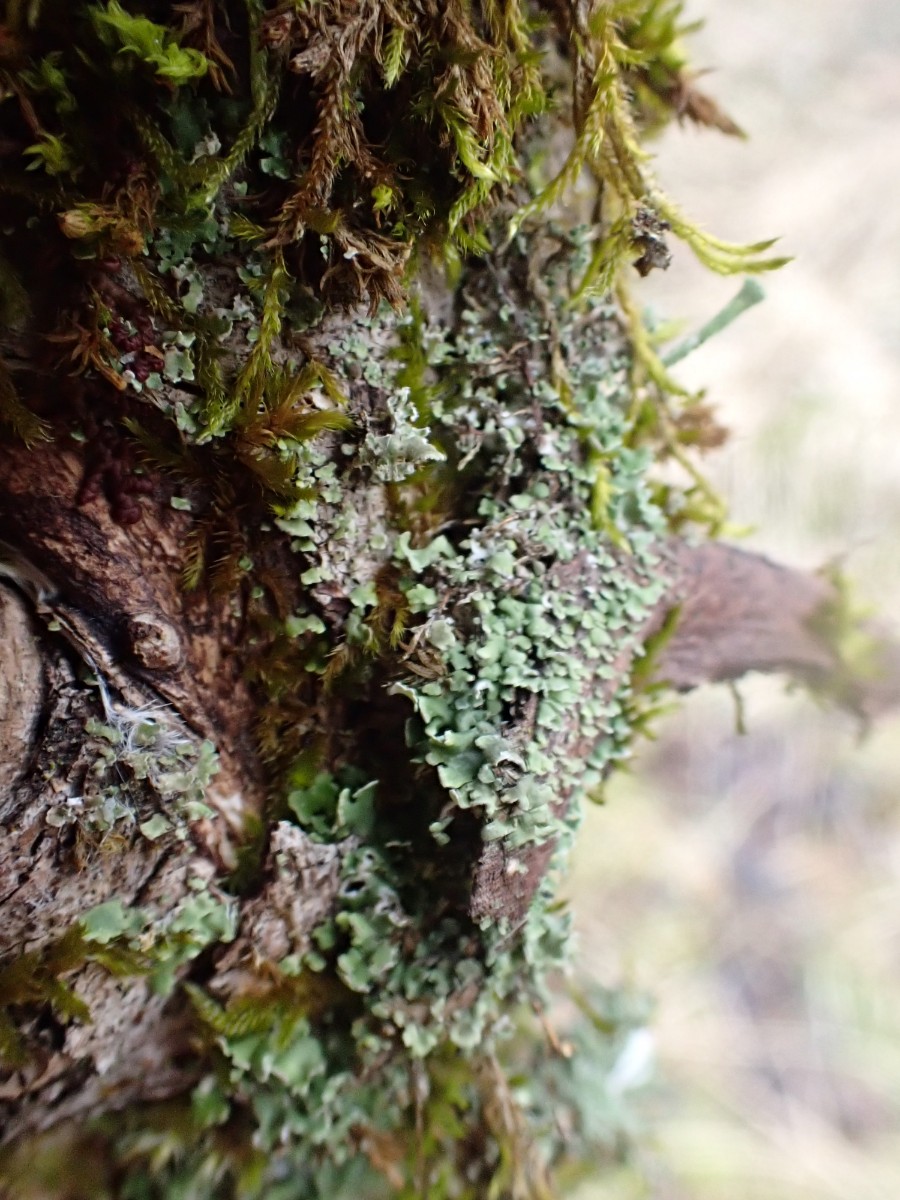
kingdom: Fungi
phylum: Ascomycota
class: Lecanoromycetes
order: Lecanorales
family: Cladoniaceae
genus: Cladonia
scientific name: Cladonia
